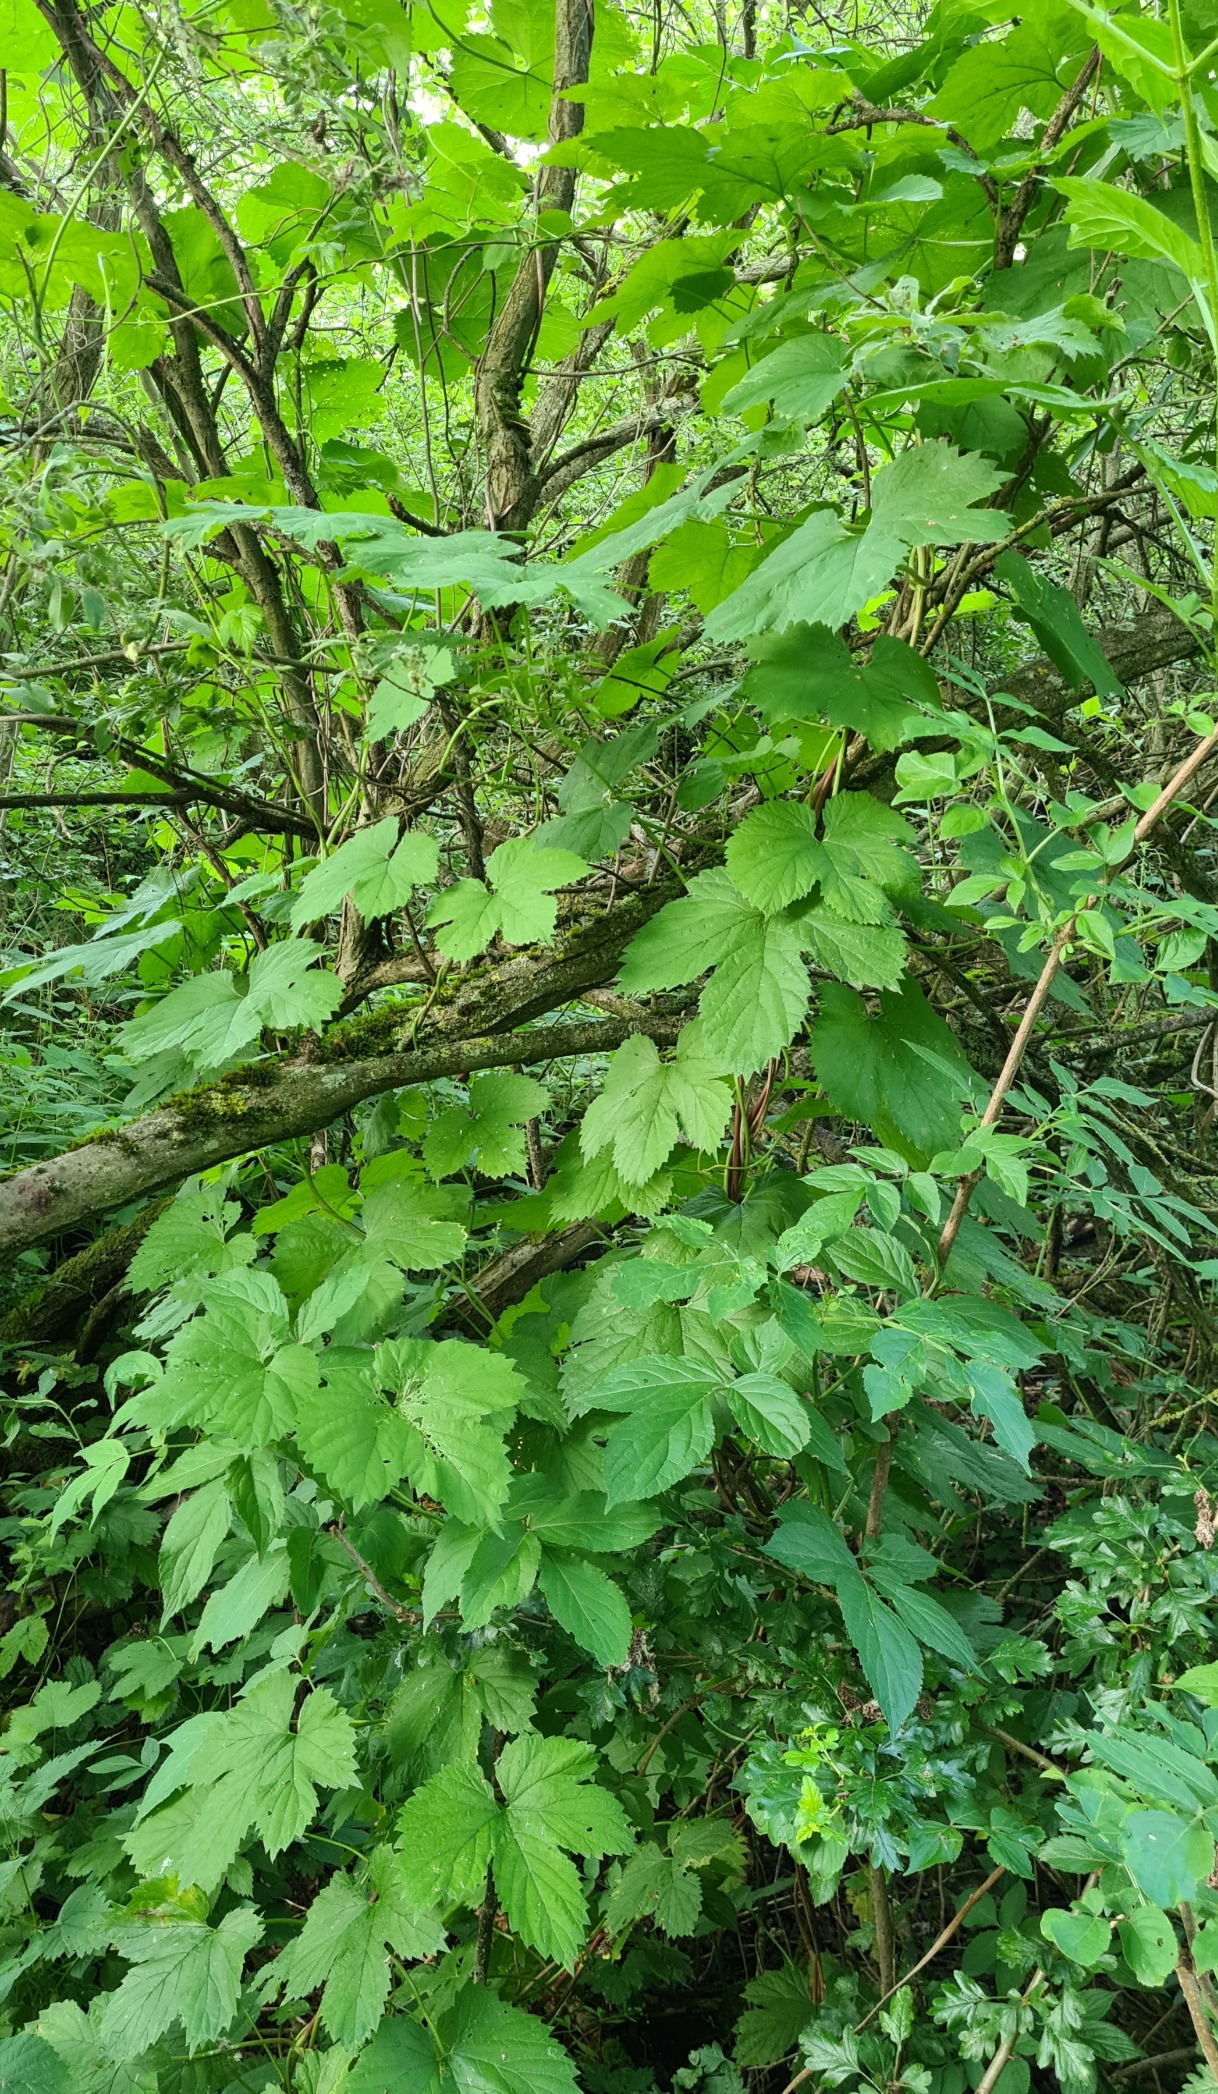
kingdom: Plantae
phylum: Tracheophyta
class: Magnoliopsida
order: Rosales
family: Cannabaceae
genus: Humulus
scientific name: Humulus lupulus
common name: Humle
